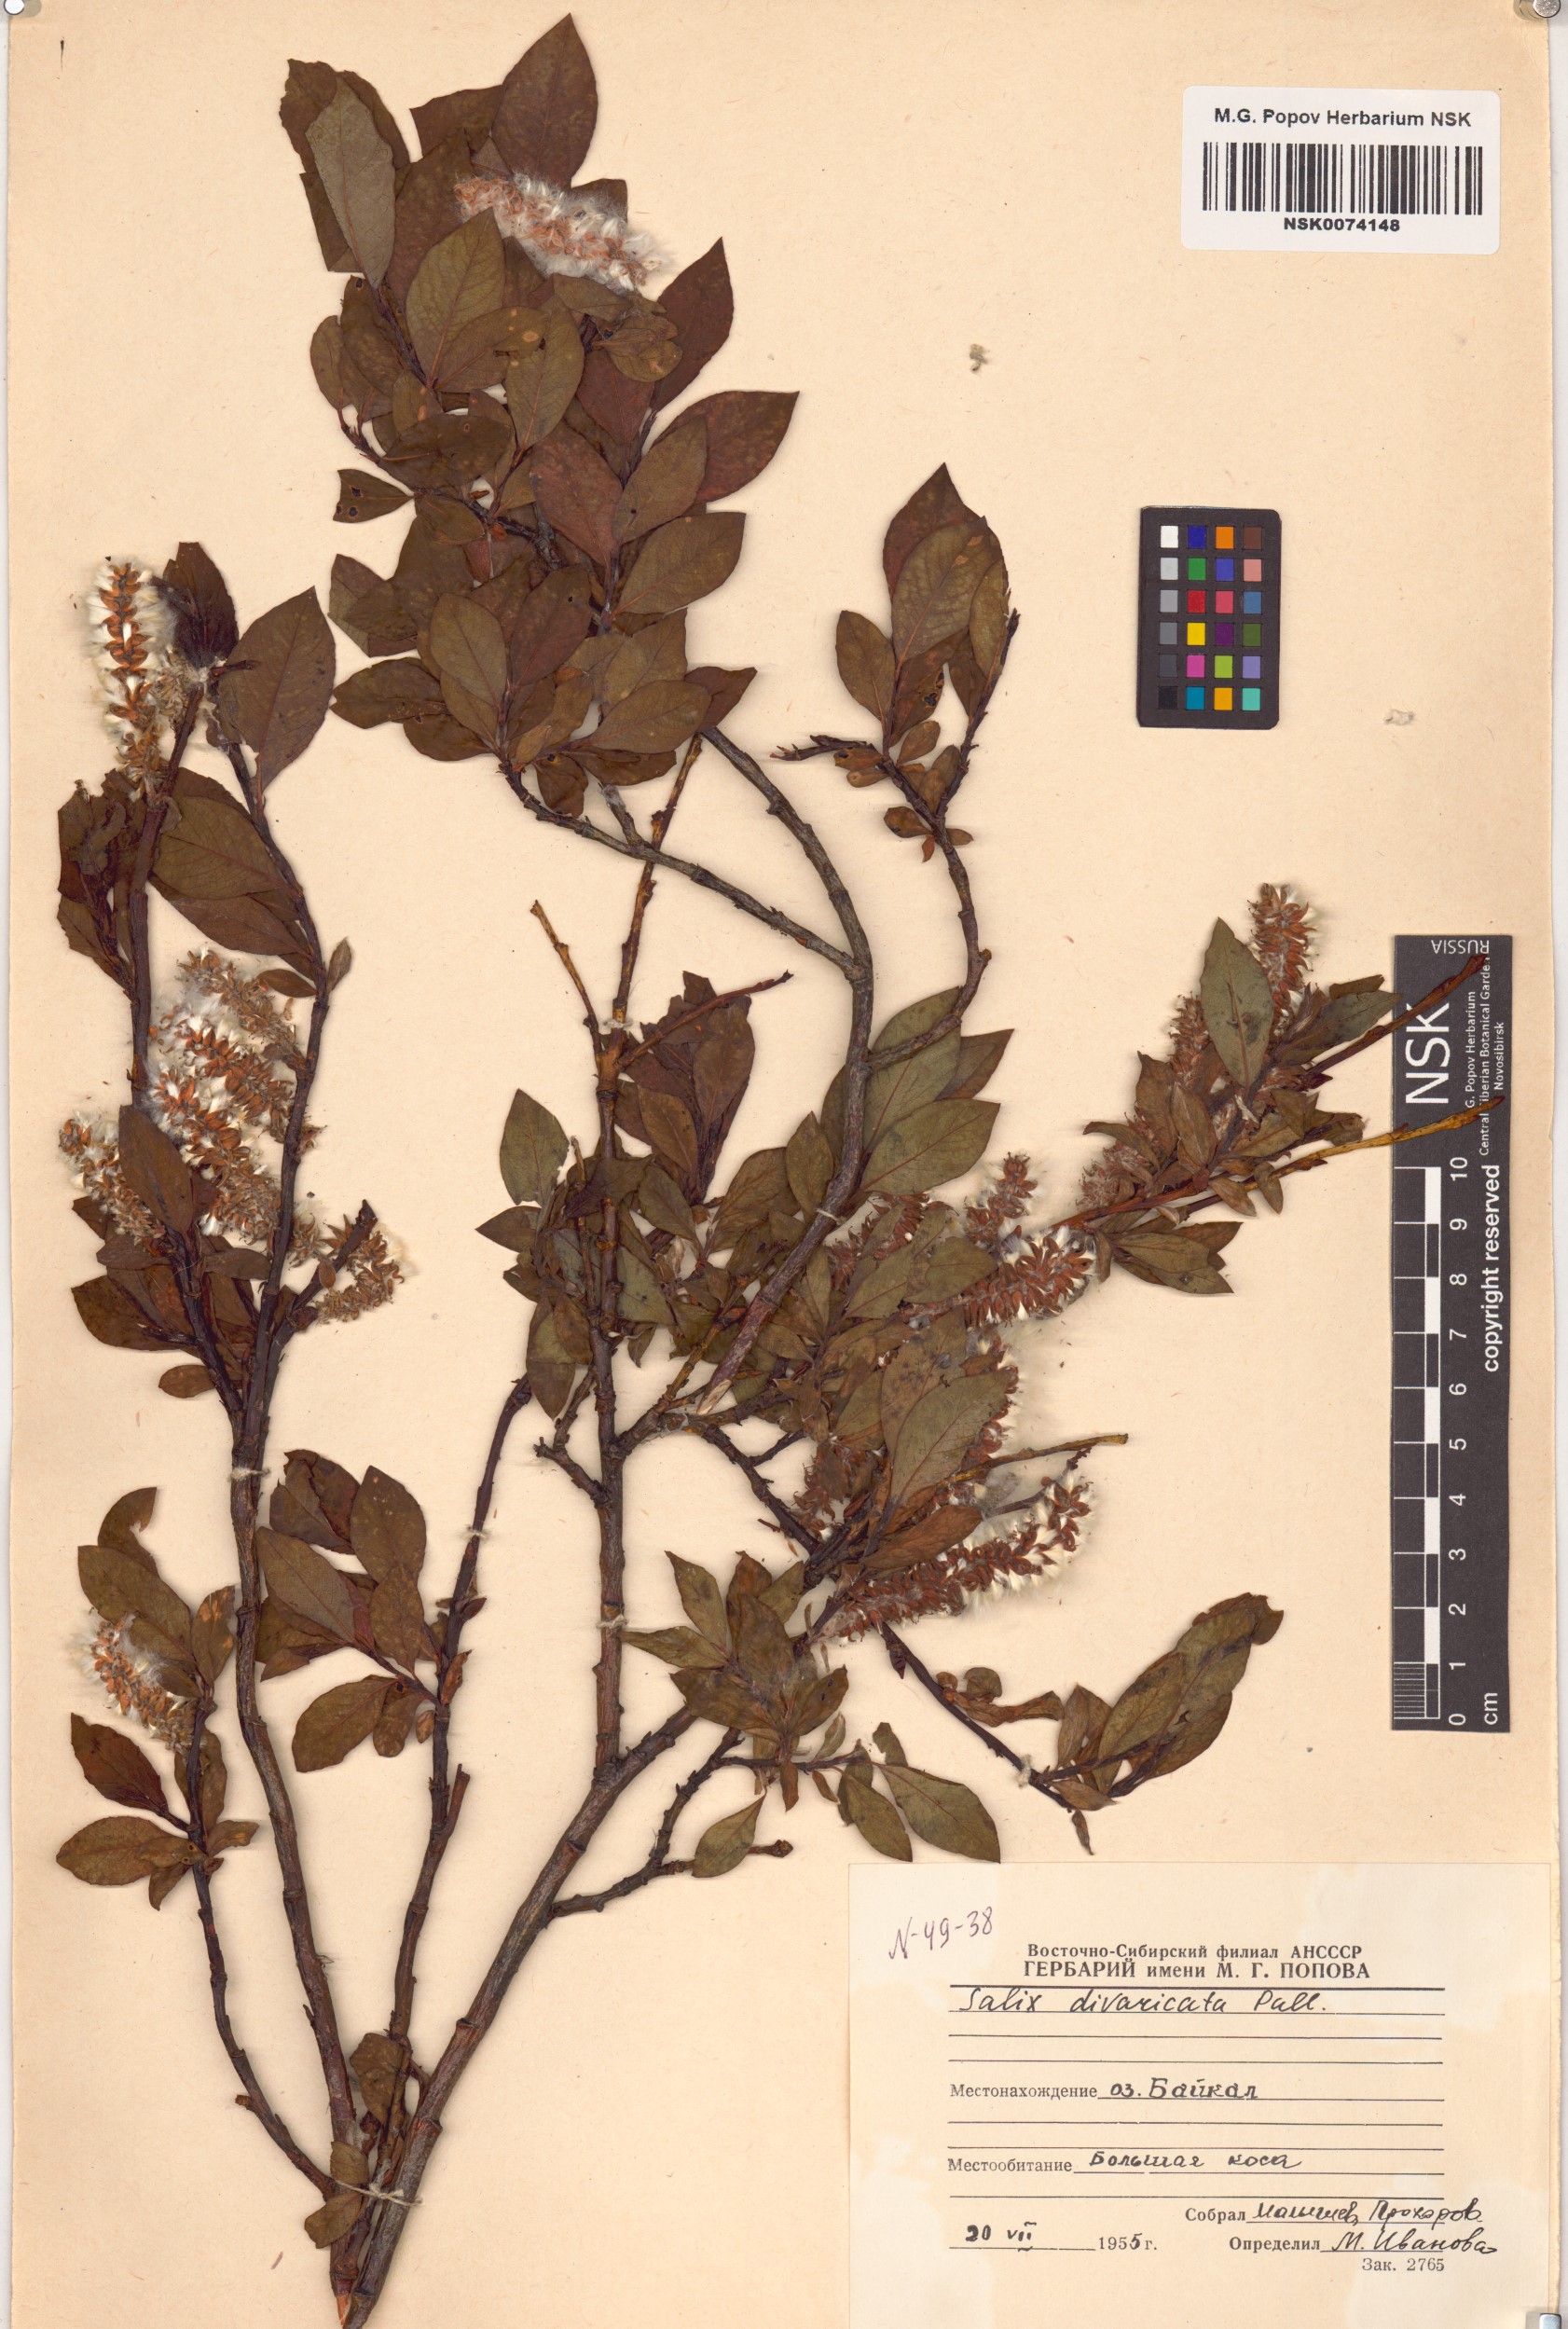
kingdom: Plantae
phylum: Tracheophyta
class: Magnoliopsida
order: Malpighiales
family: Salicaceae
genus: Salix
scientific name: Salix divaricata
